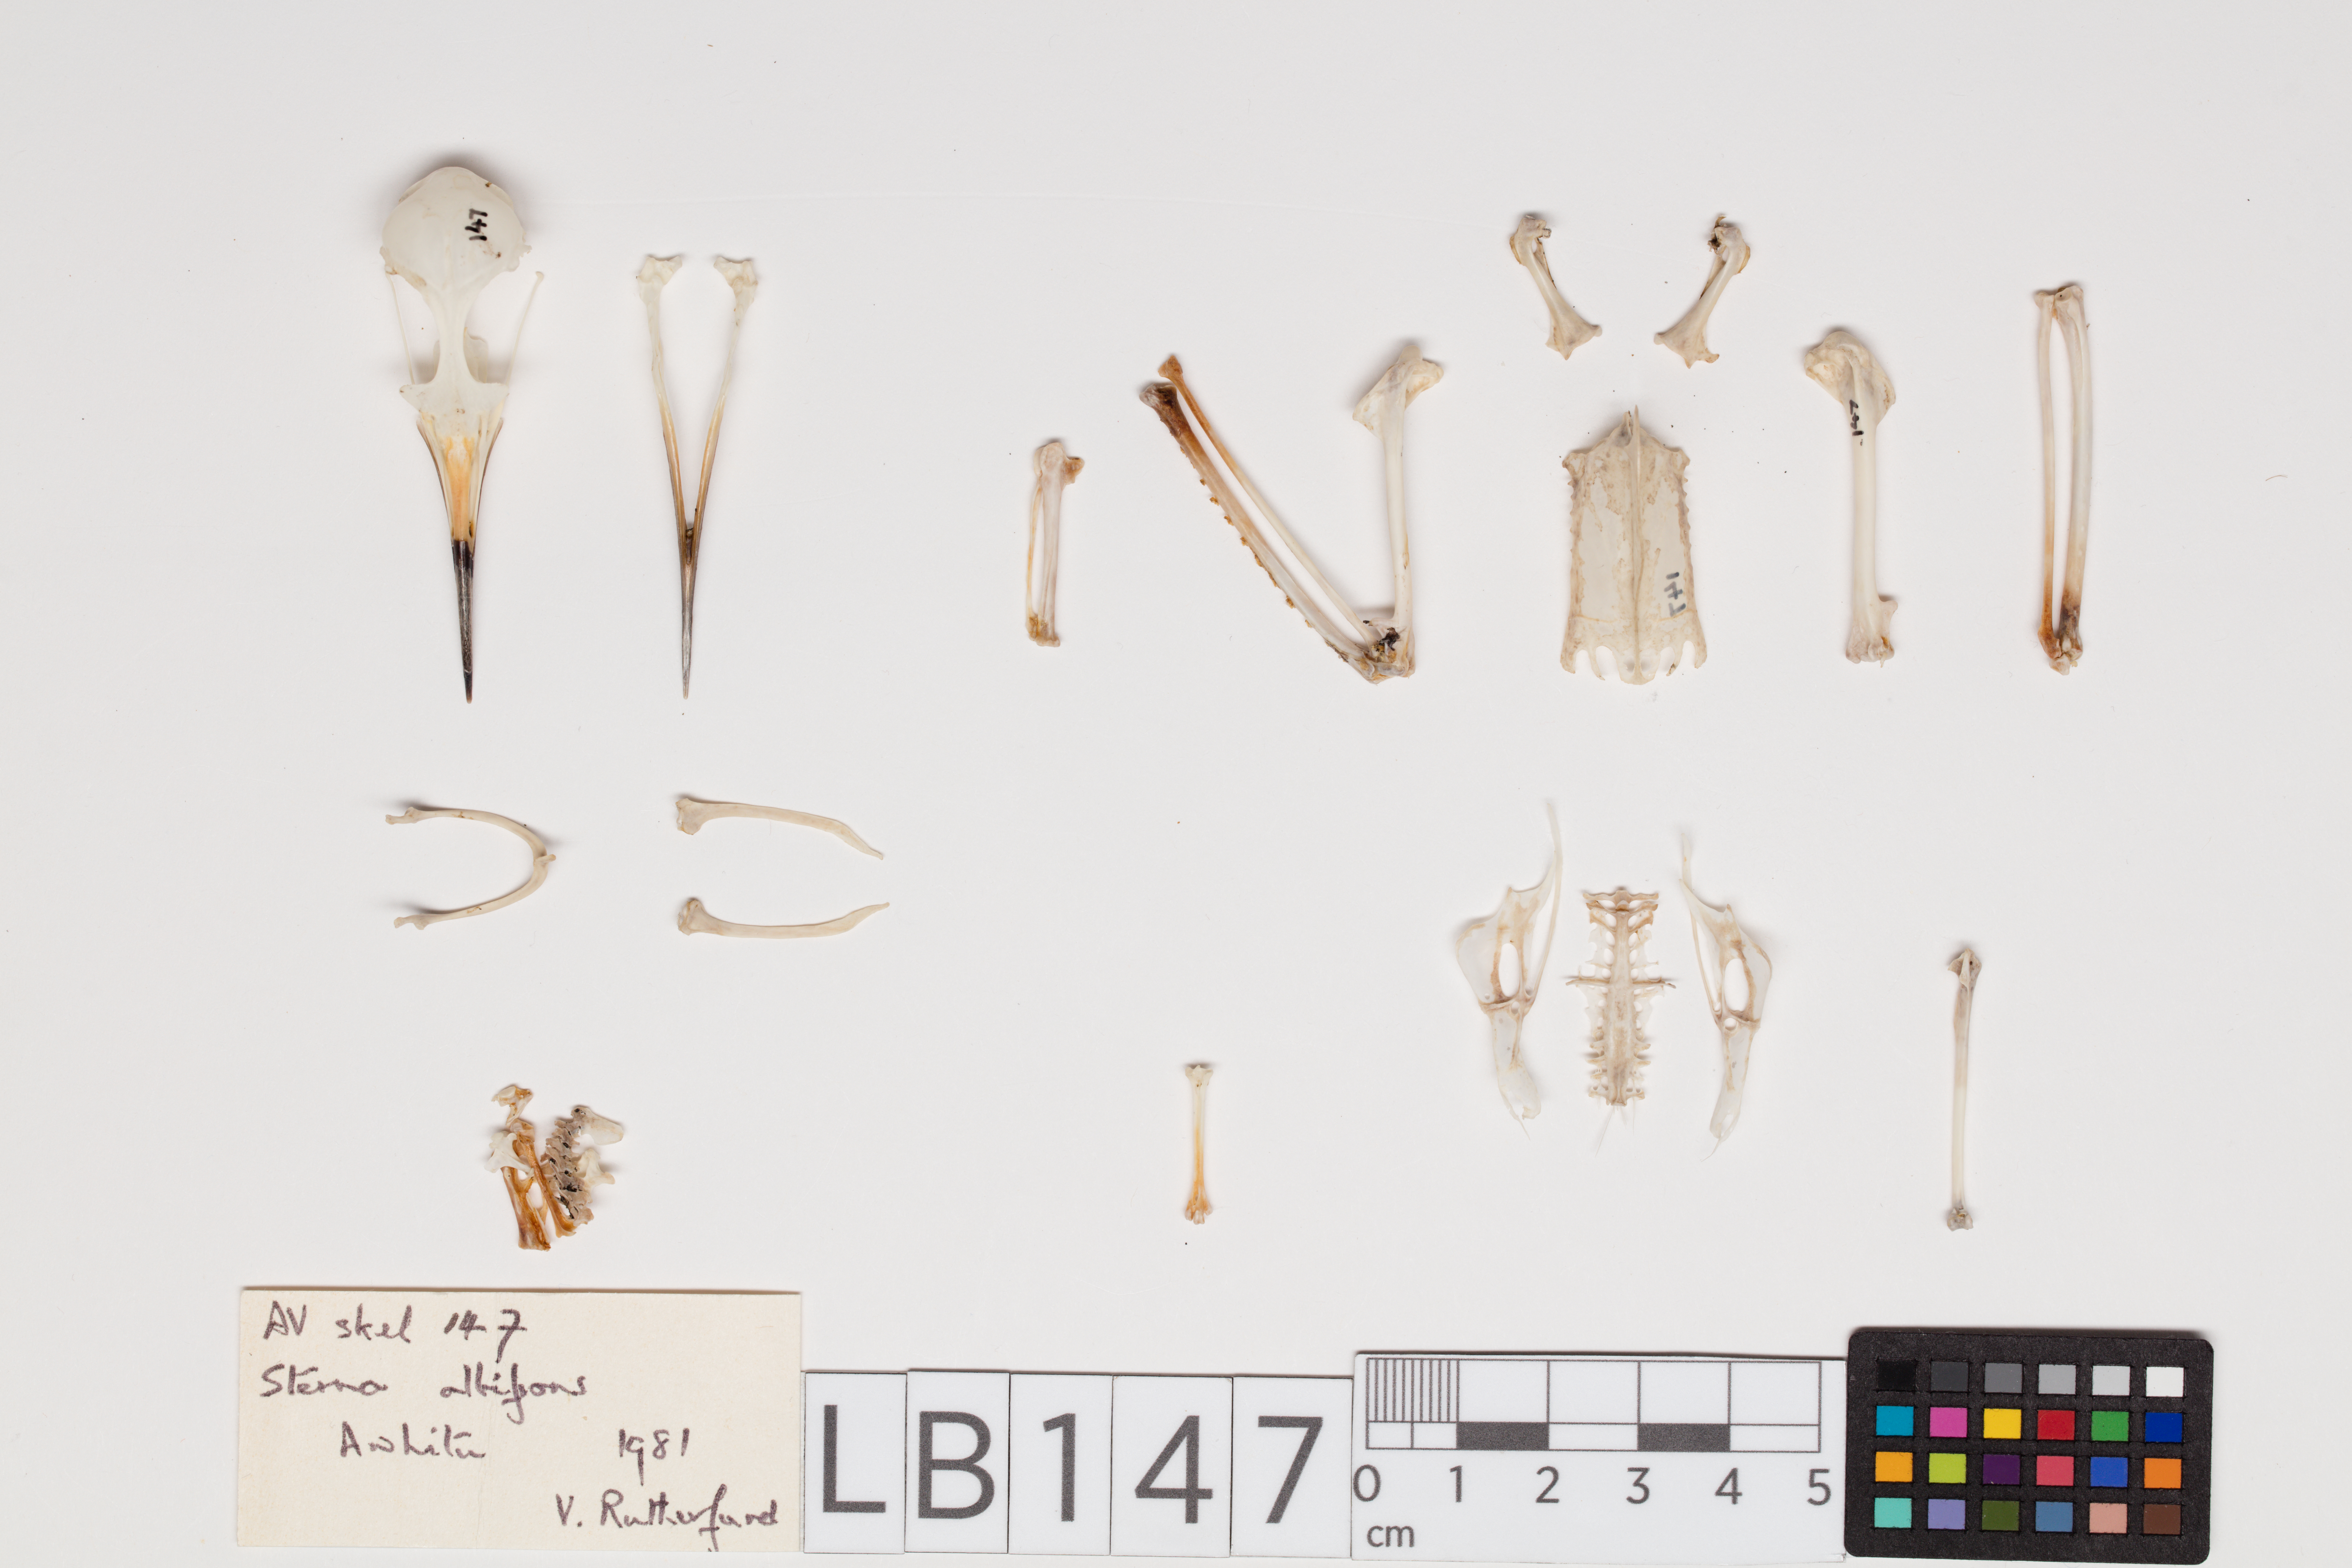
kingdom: Animalia
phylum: Chordata
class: Aves
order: Charadriiformes
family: Laridae
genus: Sternula
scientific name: Sternula albifrons
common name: Little tern
